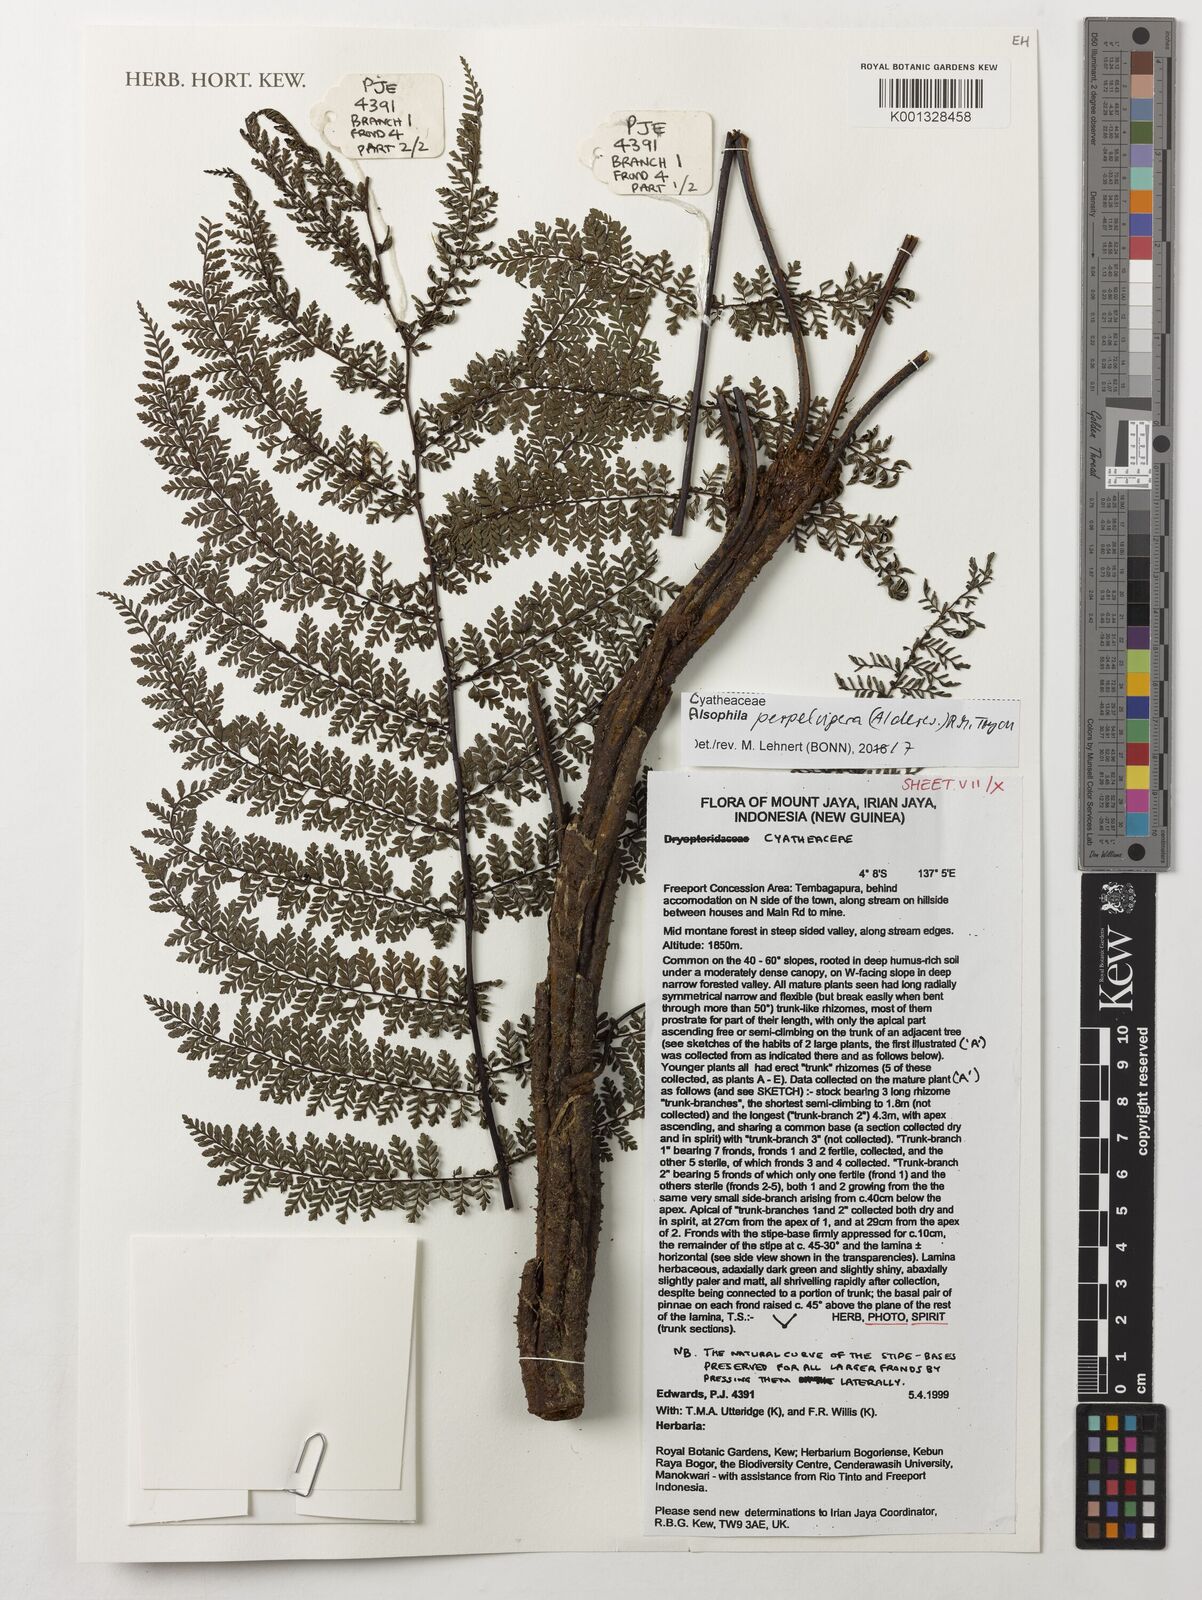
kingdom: Plantae
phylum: Tracheophyta
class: Polypodiopsida
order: Cyatheales
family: Cyatheaceae
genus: Alsophila
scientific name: Alsophila perpelvigera
